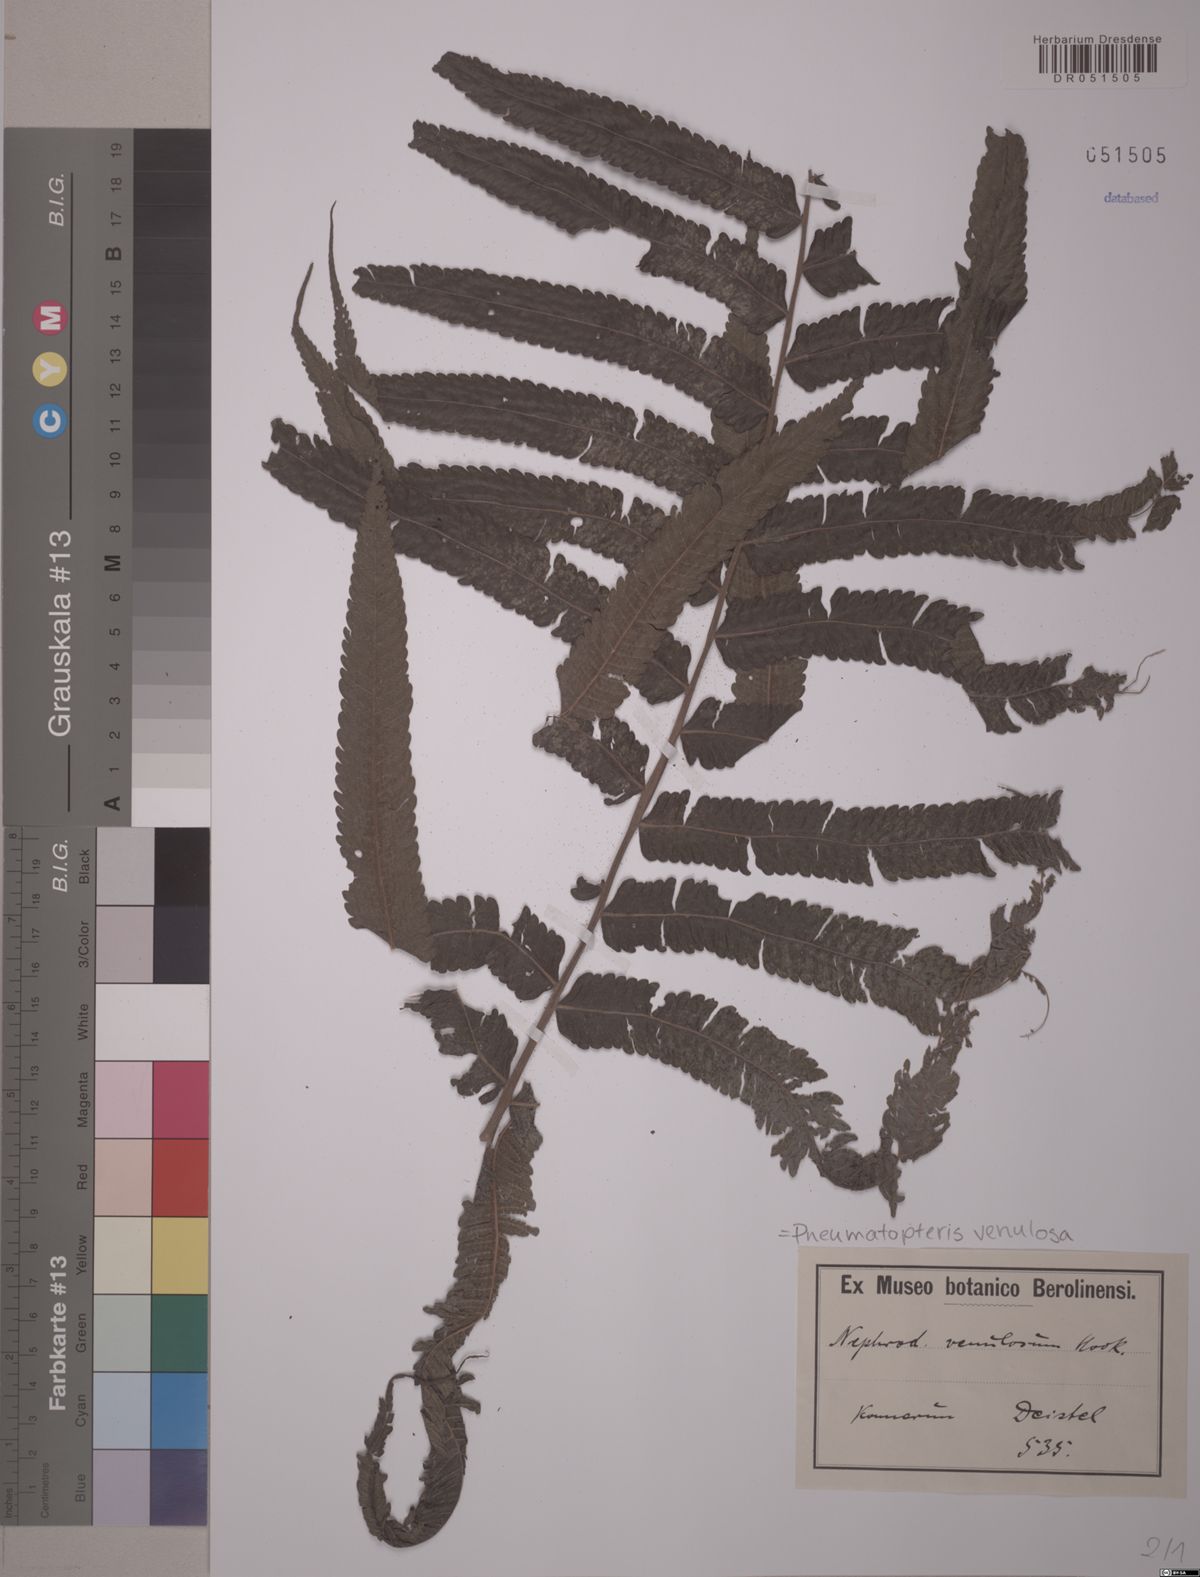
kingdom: Plantae
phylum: Tracheophyta
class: Polypodiopsida
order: Polypodiales
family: Thelypteridaceae
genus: Pneumatopteris
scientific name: Pneumatopteris venulosa
